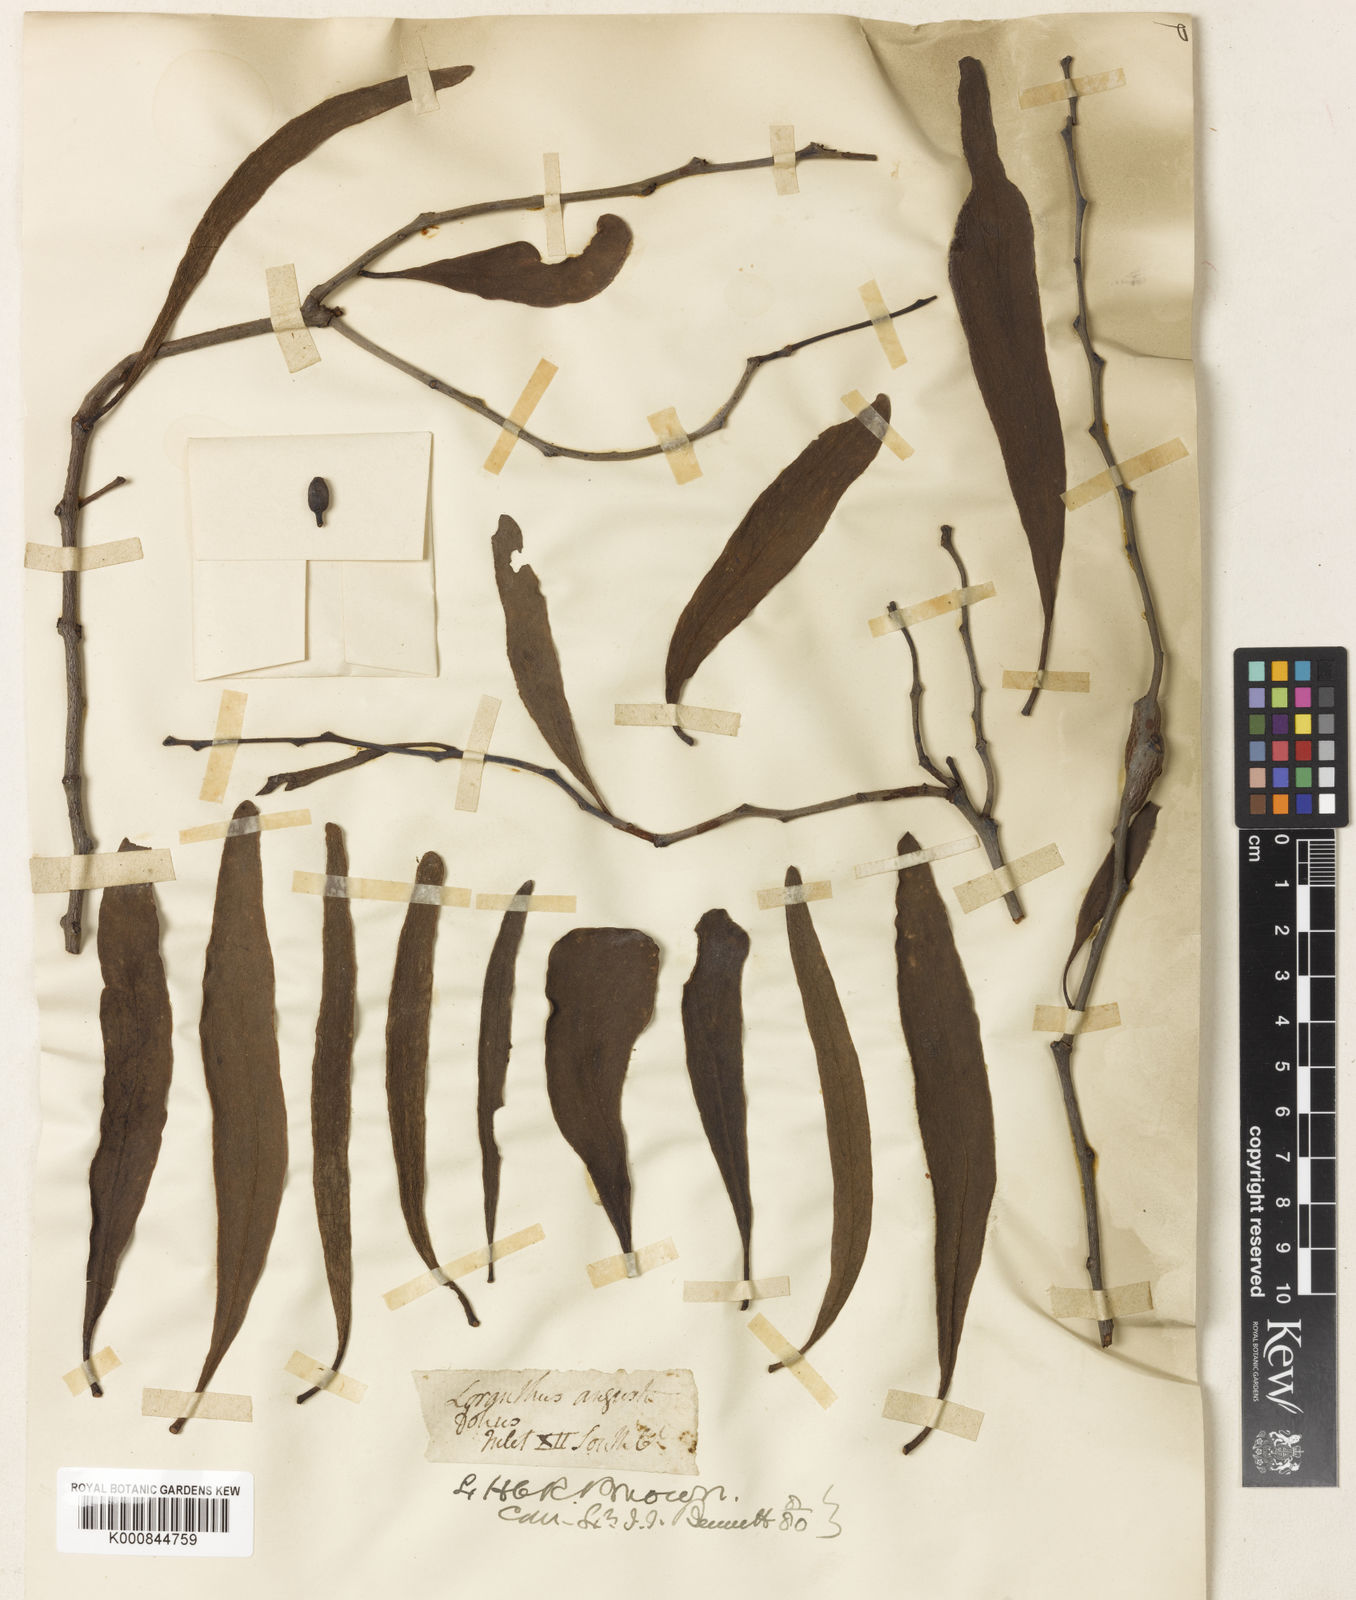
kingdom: Plantae
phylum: Tracheophyta
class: Magnoliopsida
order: Santalales
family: Loranthaceae
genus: Lysiana
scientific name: Lysiana exocarpi
